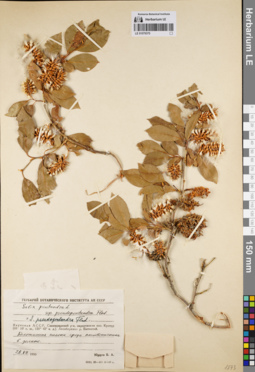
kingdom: Plantae
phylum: Tracheophyta
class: Magnoliopsida
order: Malpighiales
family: Salicaceae
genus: Salix
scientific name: Salix pseudopentandra
